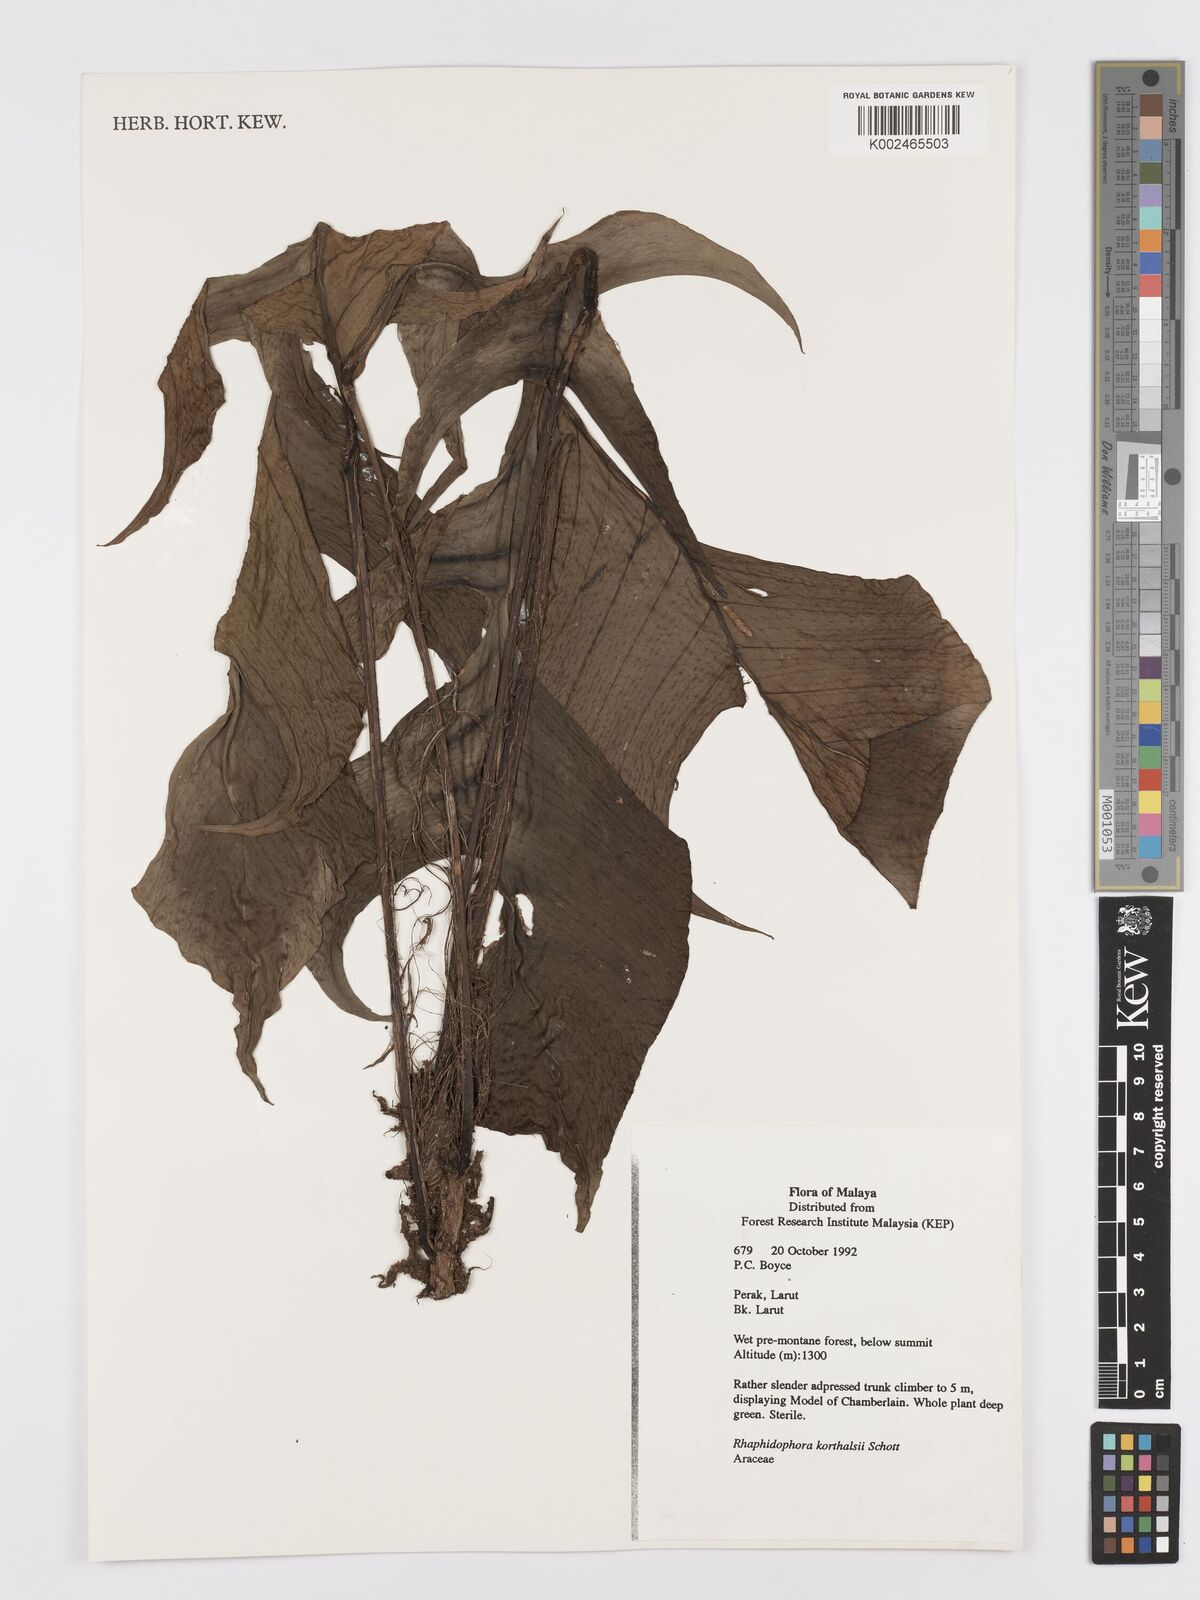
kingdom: Plantae
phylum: Tracheophyta
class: Liliopsida
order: Alismatales
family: Araceae
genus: Rhaphidophora
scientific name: Rhaphidophora korthalsii
